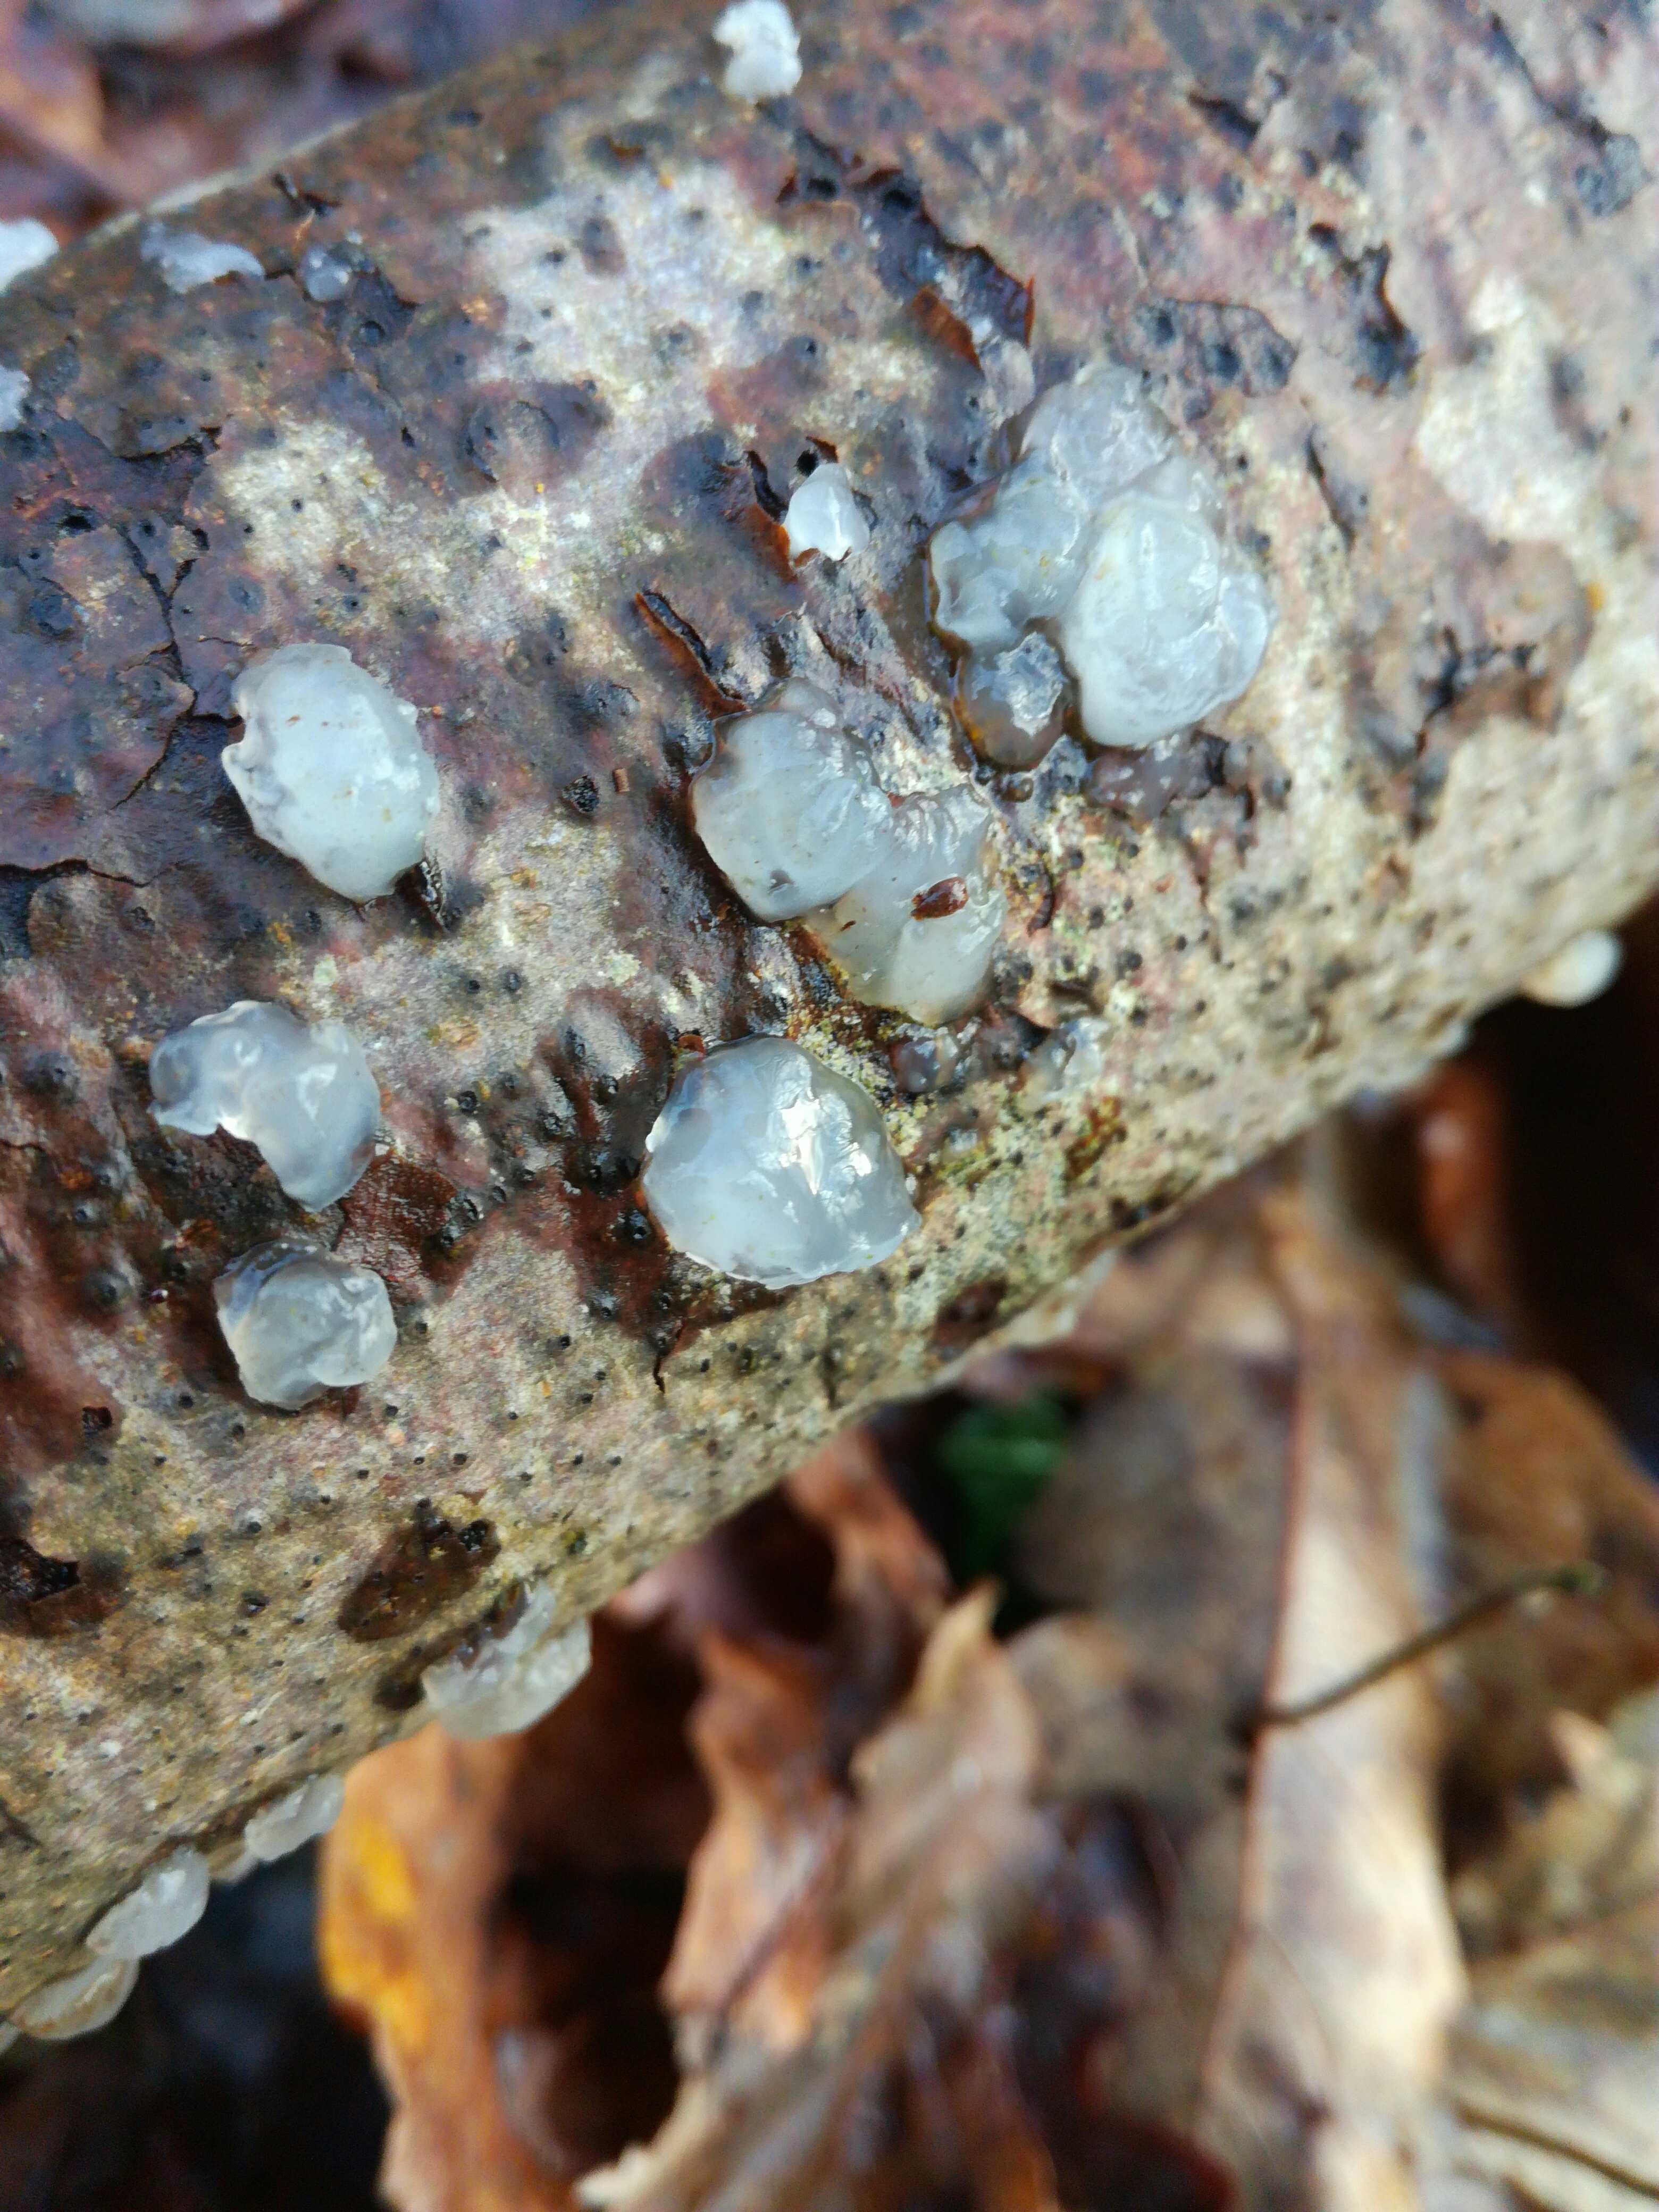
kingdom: Fungi
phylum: Basidiomycota
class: Agaricomycetes
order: Auriculariales
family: Hyaloriaceae
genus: Myxarium
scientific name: Myxarium nucleatum
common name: klar bævretop
